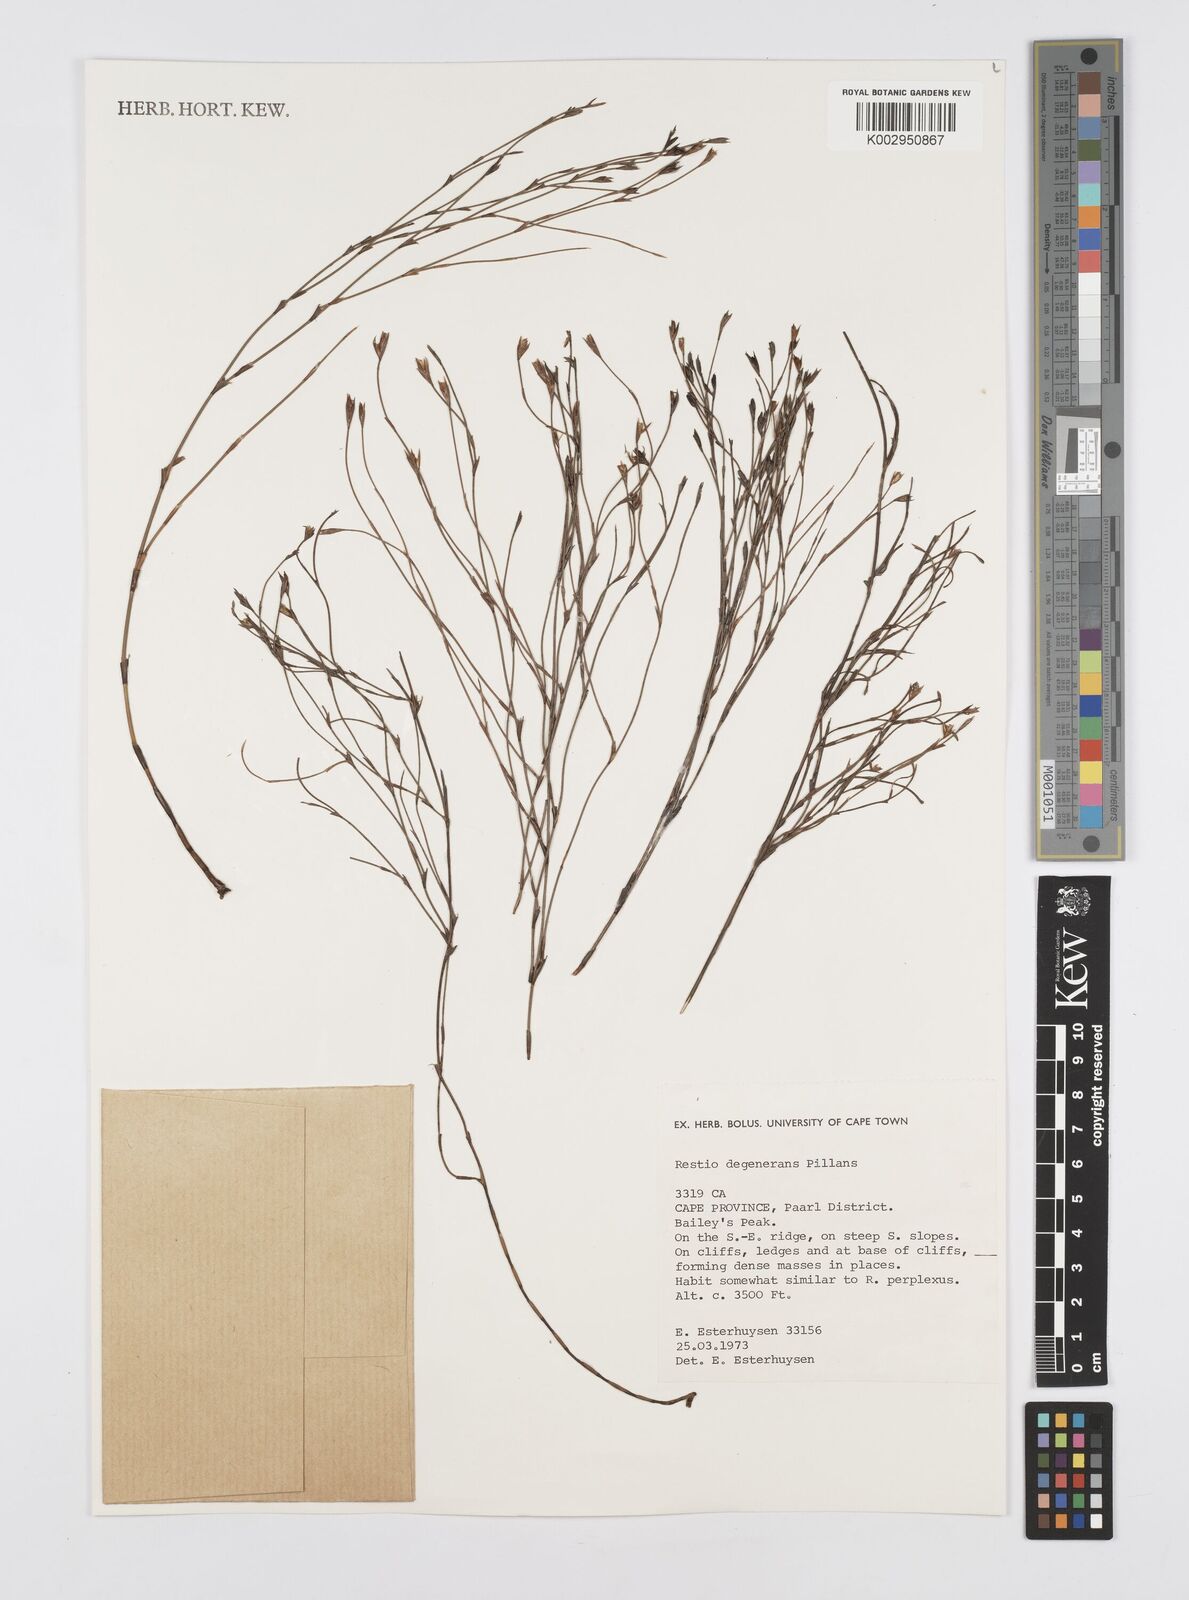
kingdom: Plantae
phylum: Tracheophyta
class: Liliopsida
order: Poales
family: Restionaceae
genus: Restio
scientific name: Restio degenerans
